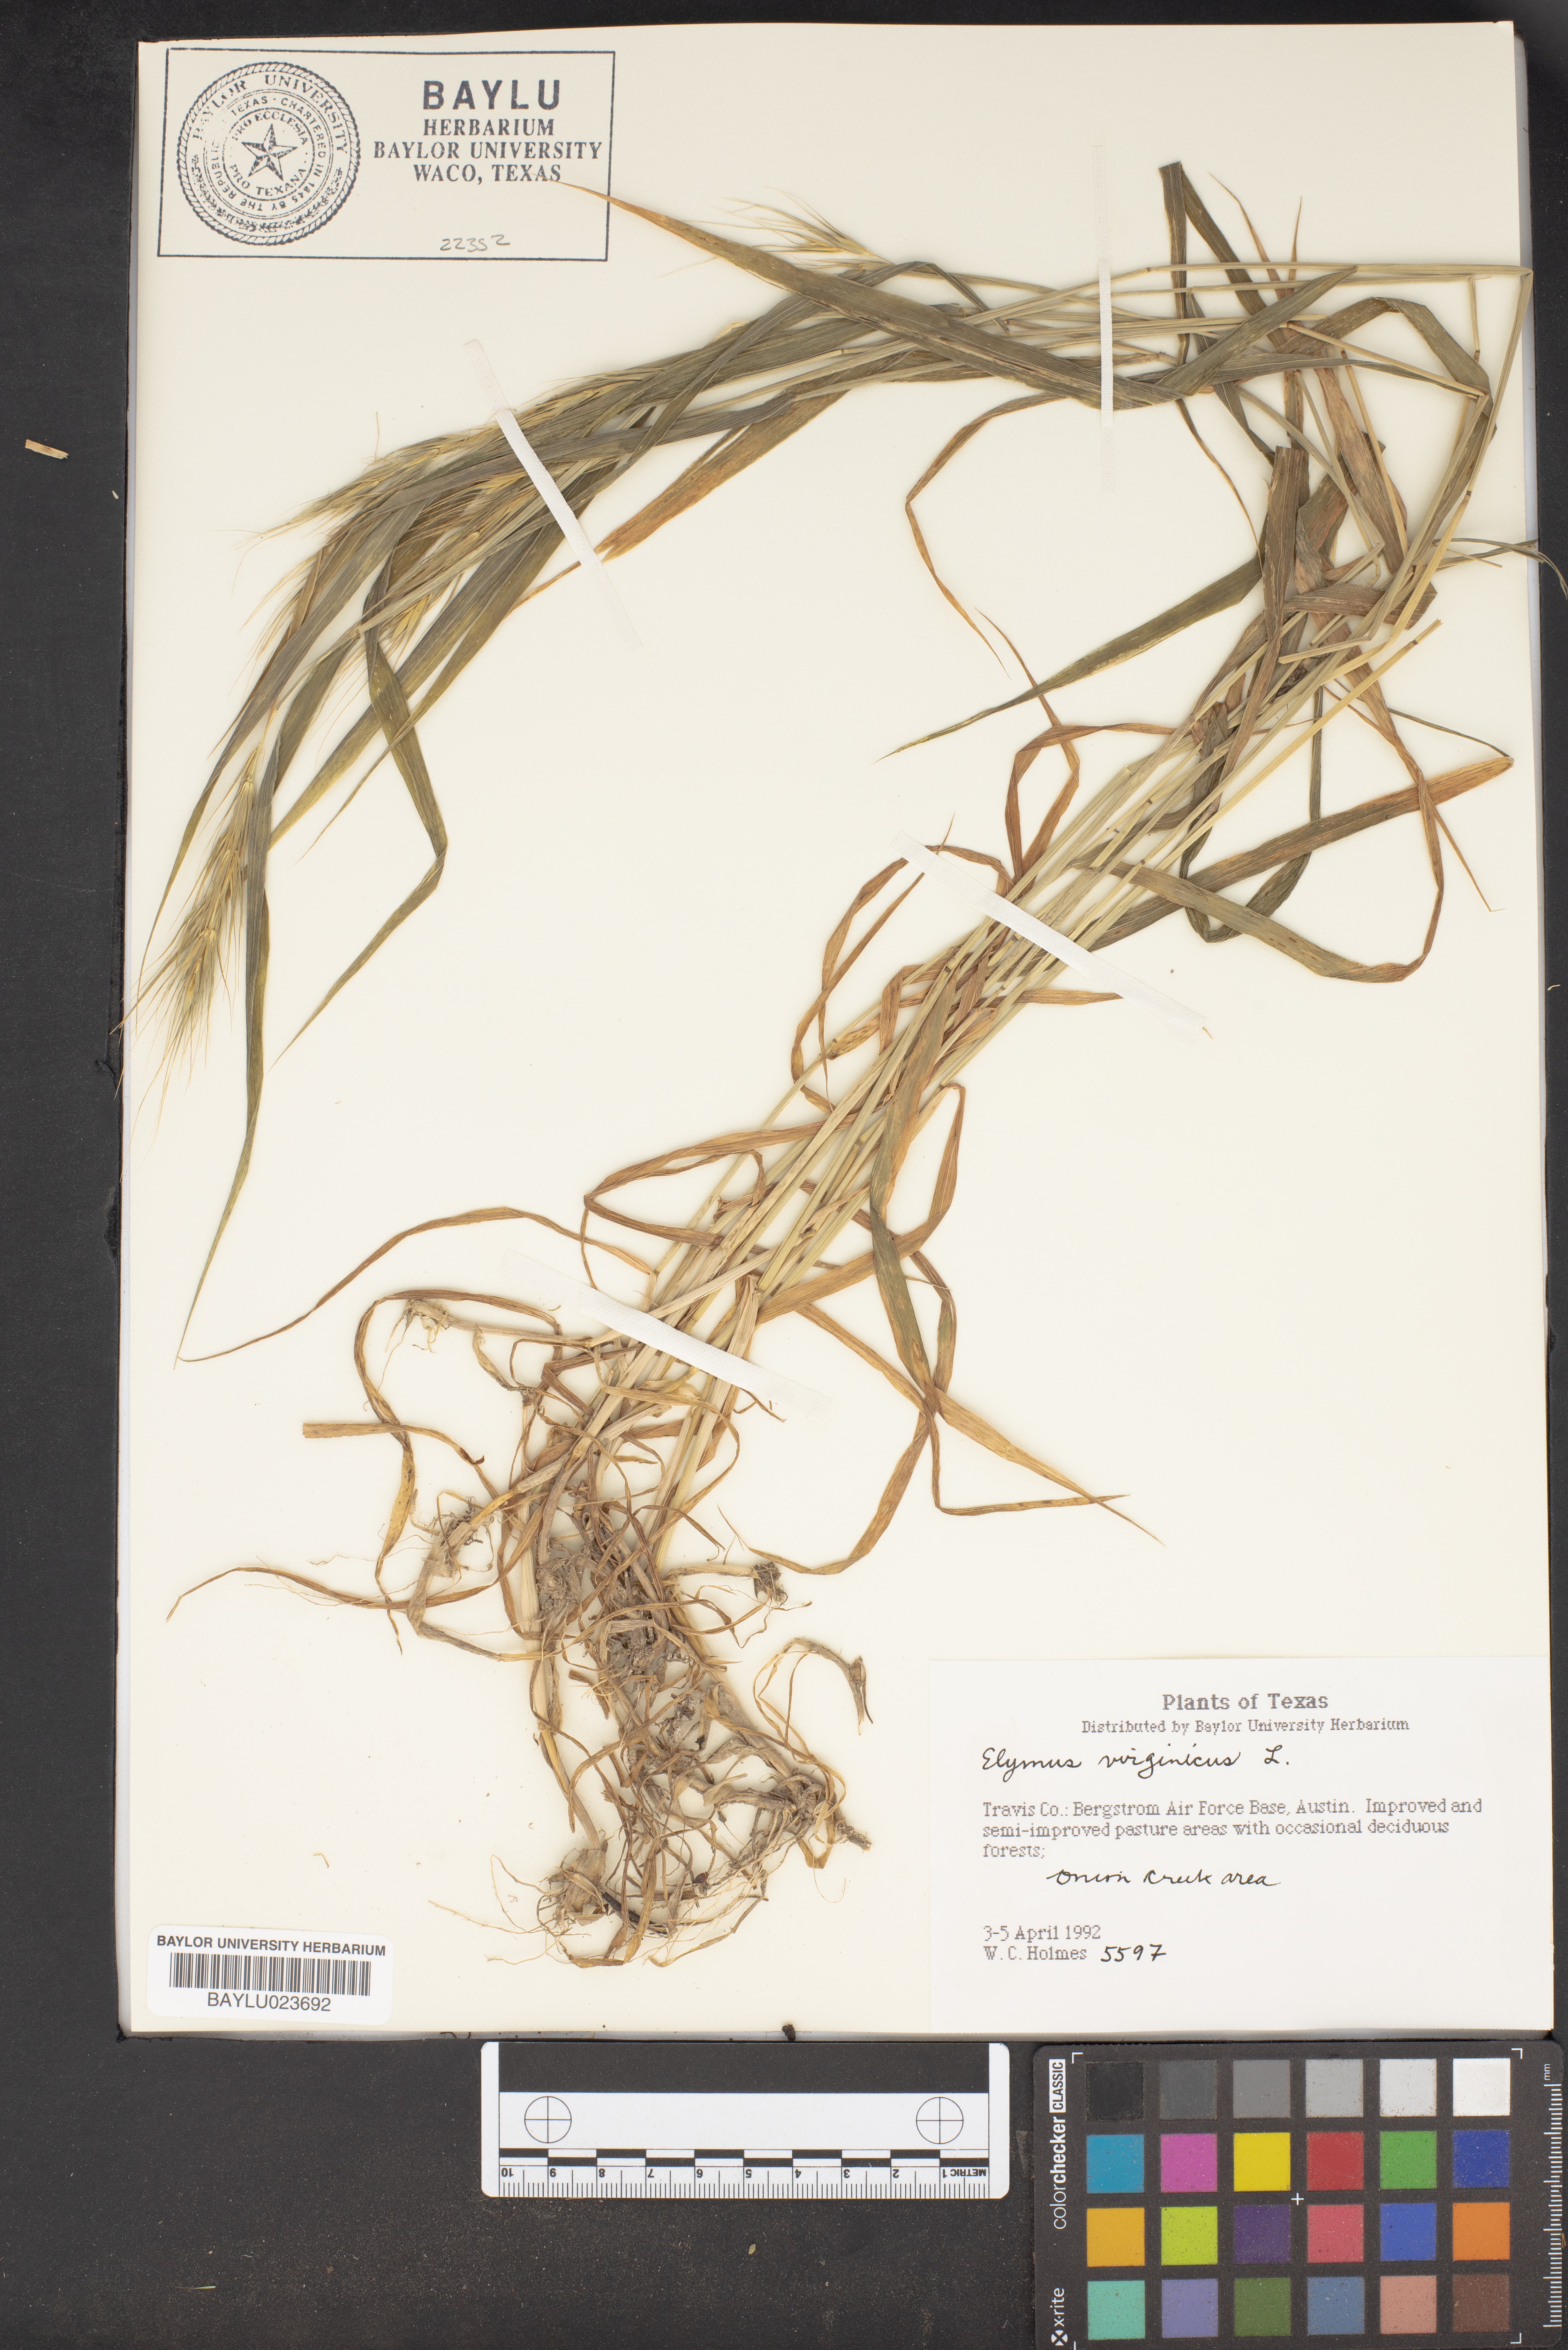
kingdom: Plantae
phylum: Tracheophyta
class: Liliopsida
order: Poales
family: Poaceae
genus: Elymus
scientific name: Elymus virginicus
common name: Common eastern wildrye
